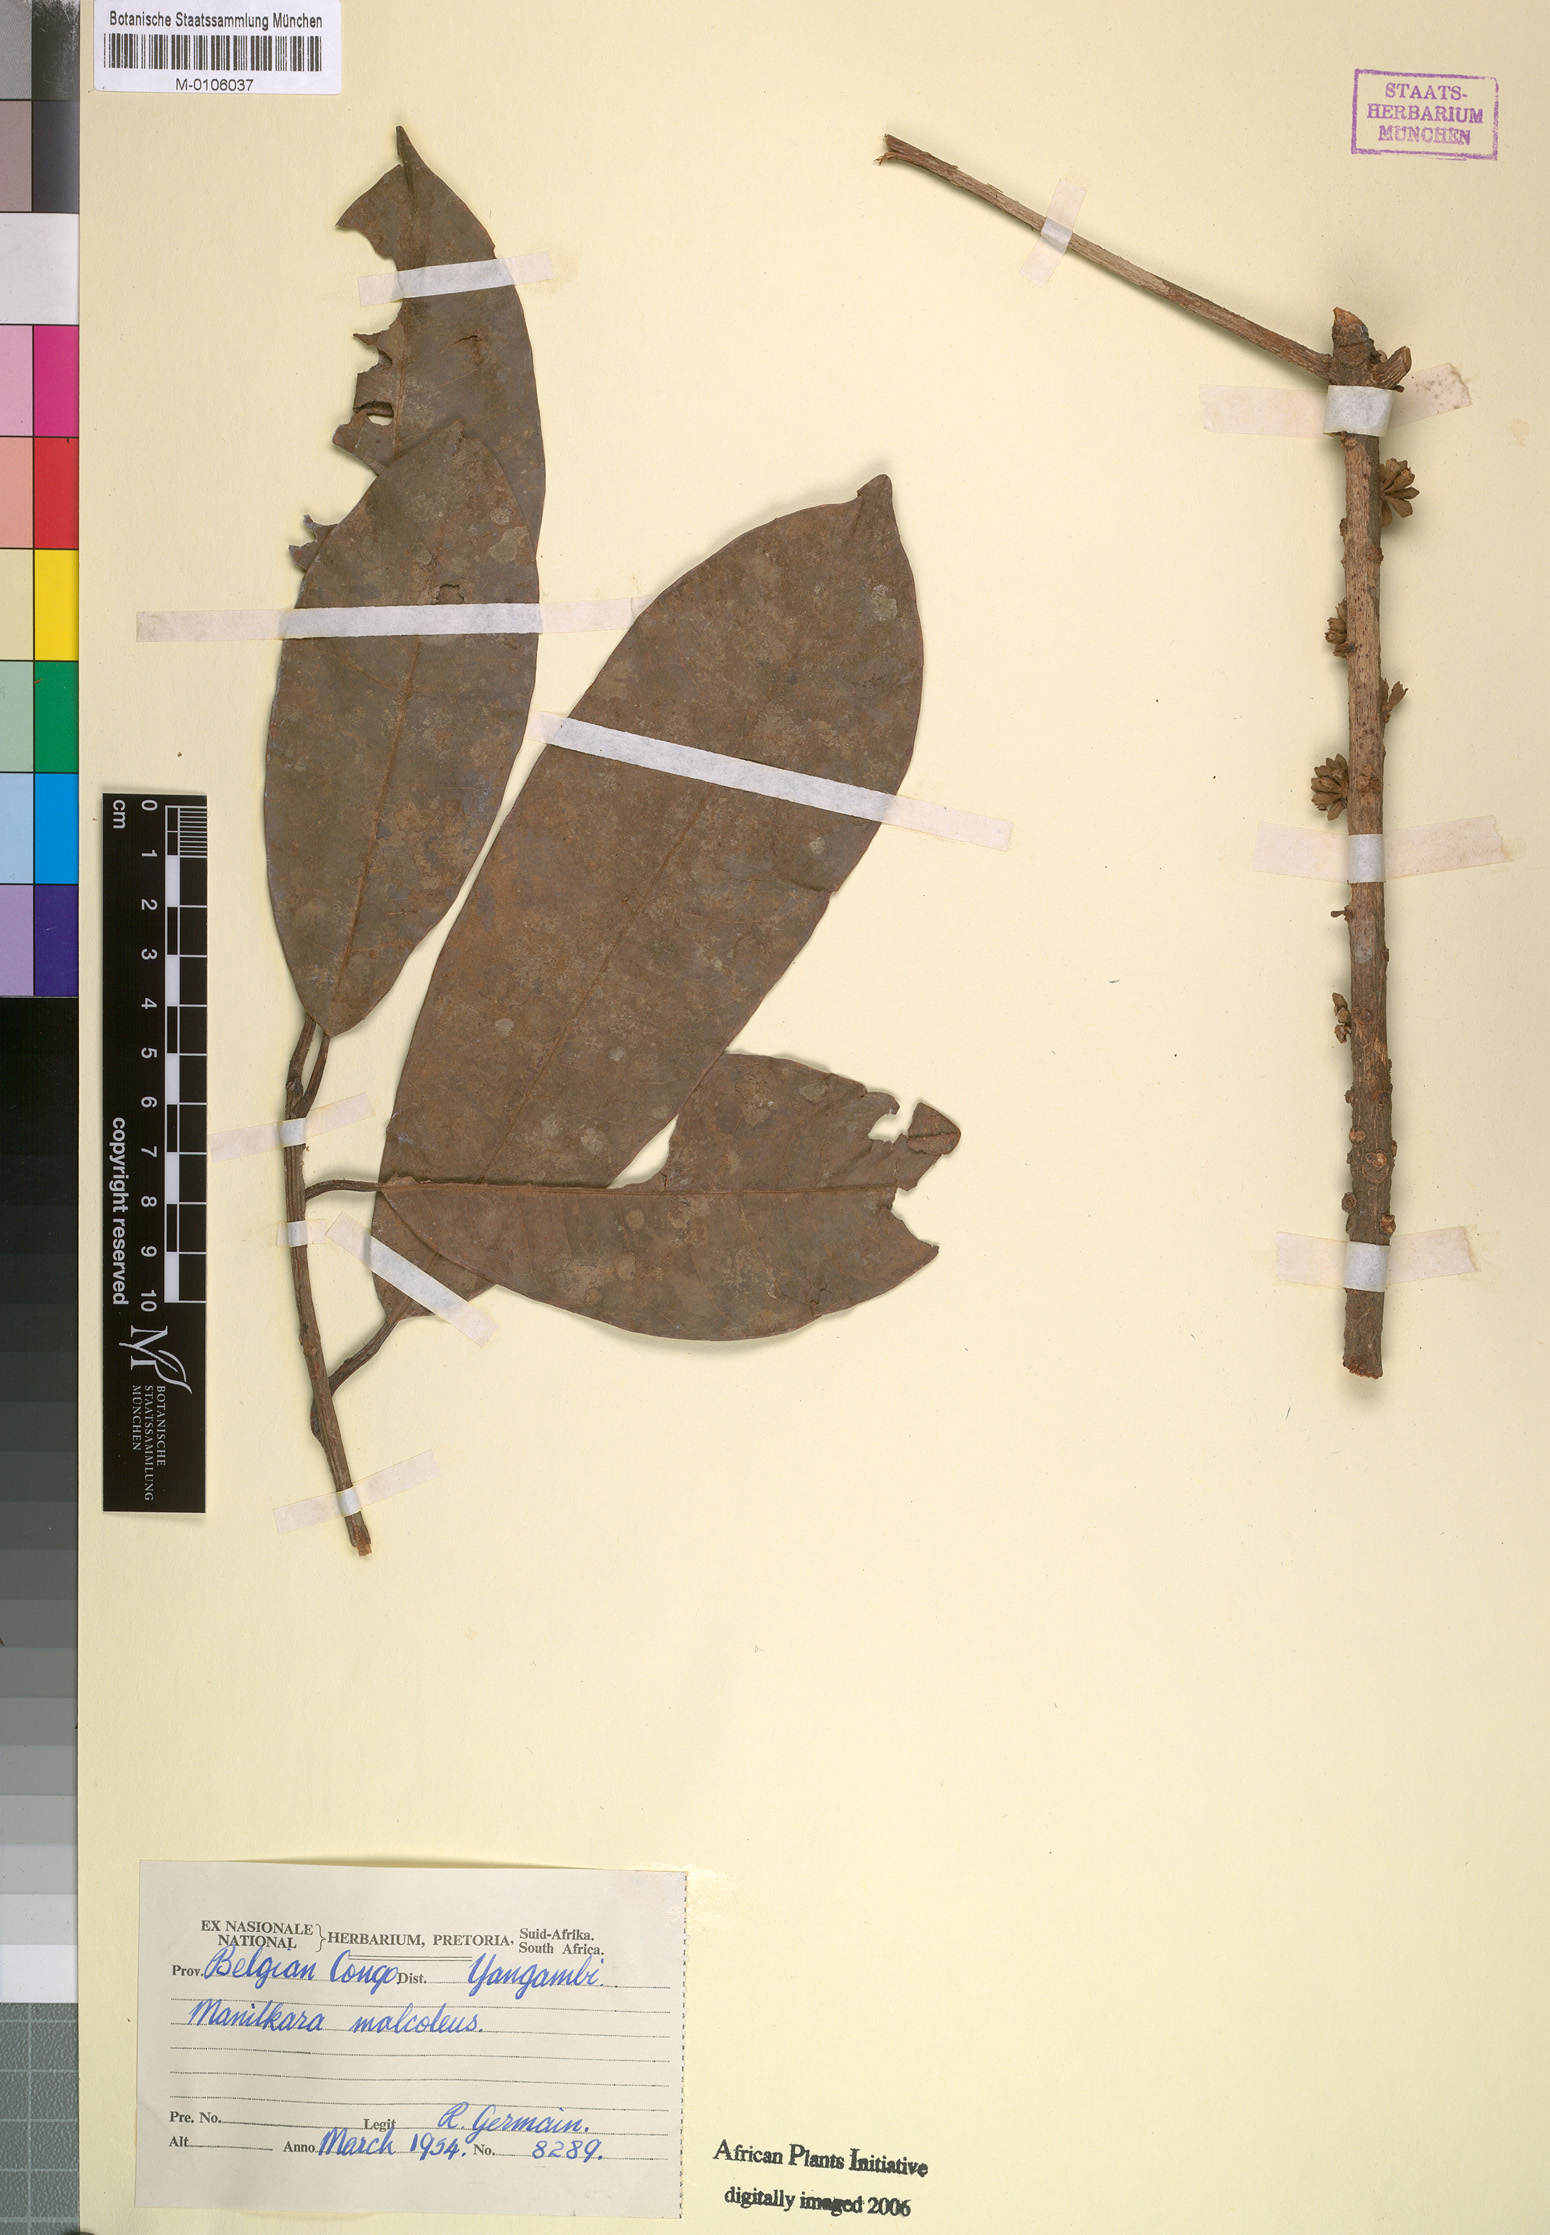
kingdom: Plantae
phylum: Tracheophyta
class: Magnoliopsida
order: Ericales
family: Sapotaceae
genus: Manilkara
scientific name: Manilkara
